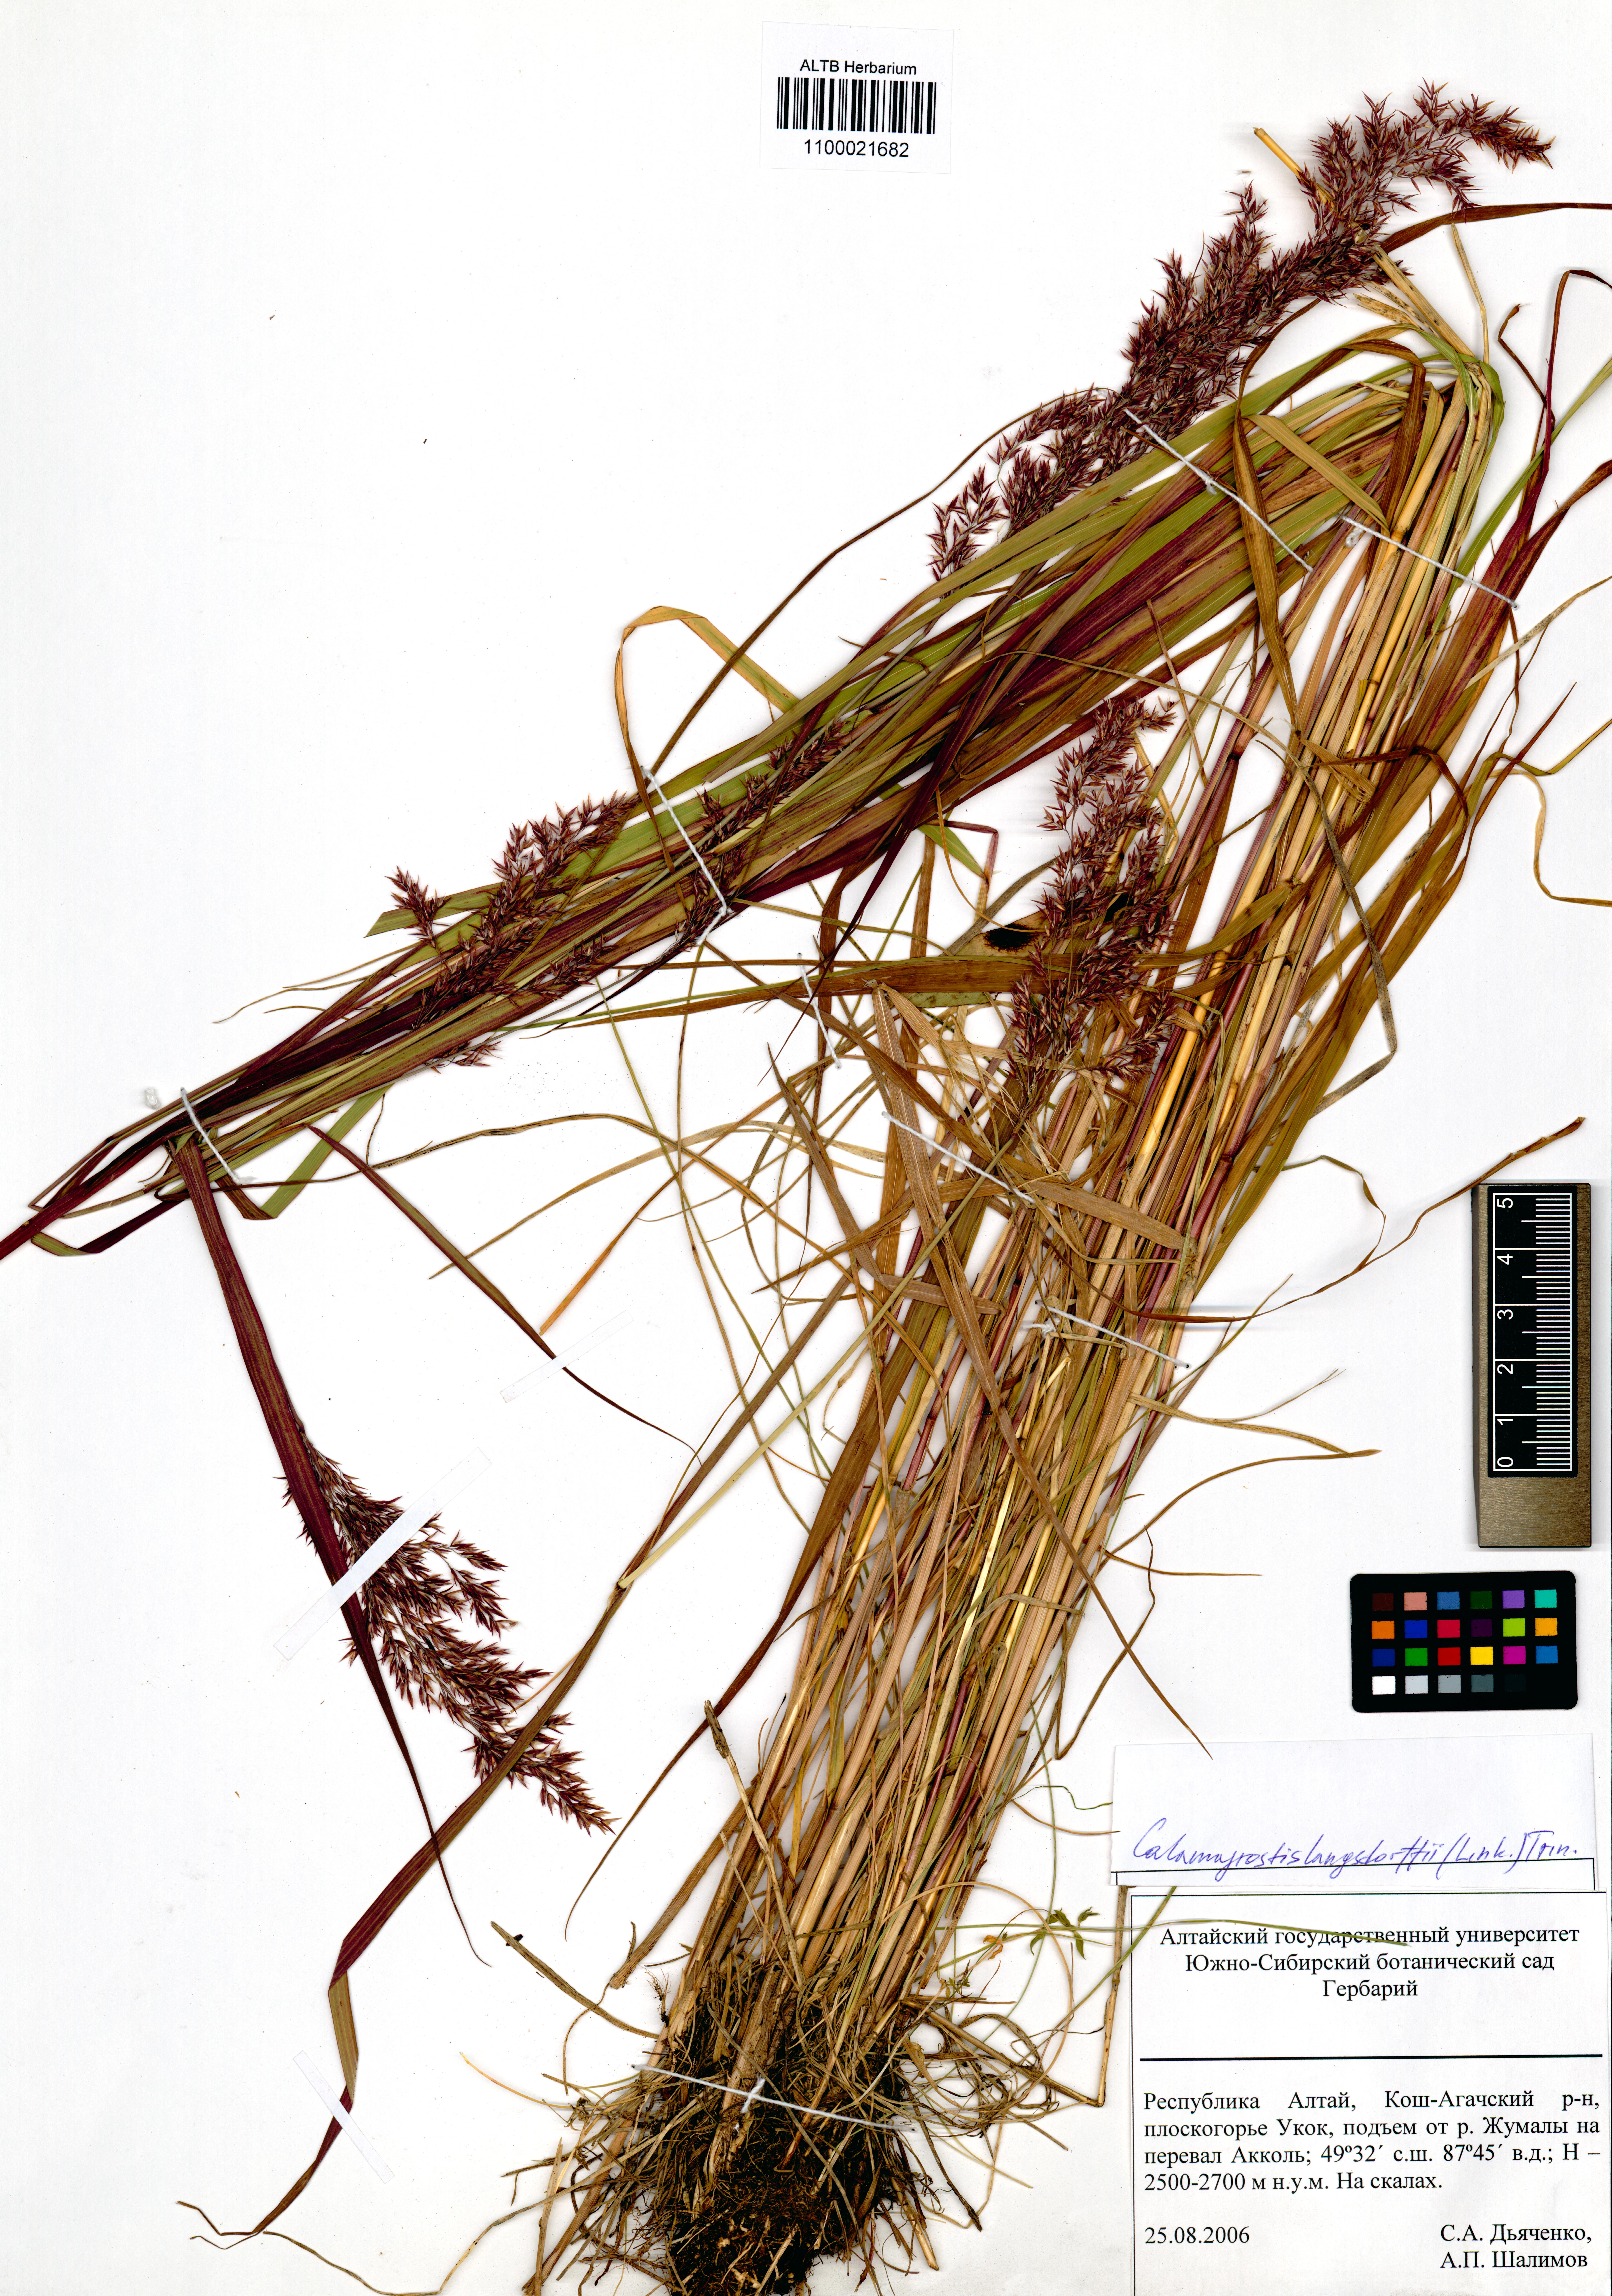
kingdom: Plantae
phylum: Tracheophyta
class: Liliopsida
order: Poales
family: Poaceae
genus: Calamagrostis
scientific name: Calamagrostis purpurea
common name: Scandinavian small-reed
